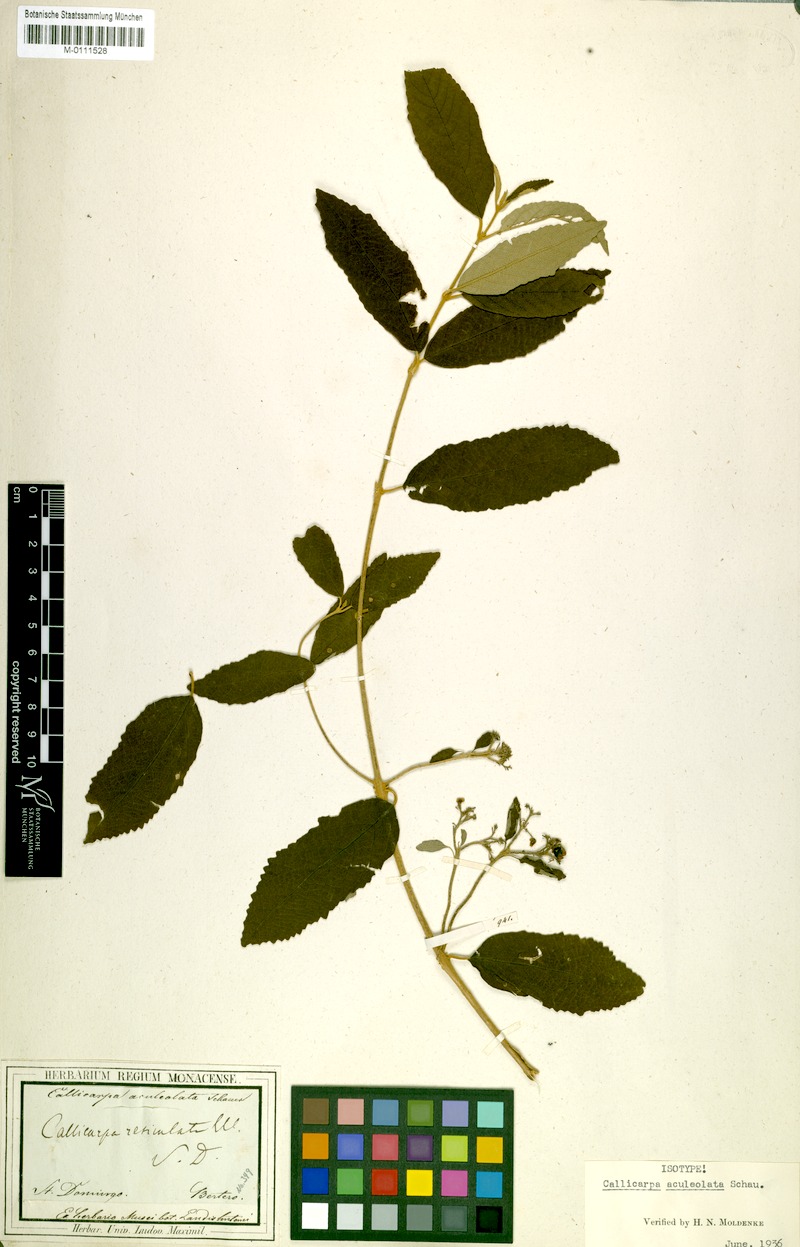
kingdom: Plantae
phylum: Tracheophyta
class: Magnoliopsida
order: Lamiales
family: Lamiaceae
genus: Callicarpa
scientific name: Callicarpa aculeolata
